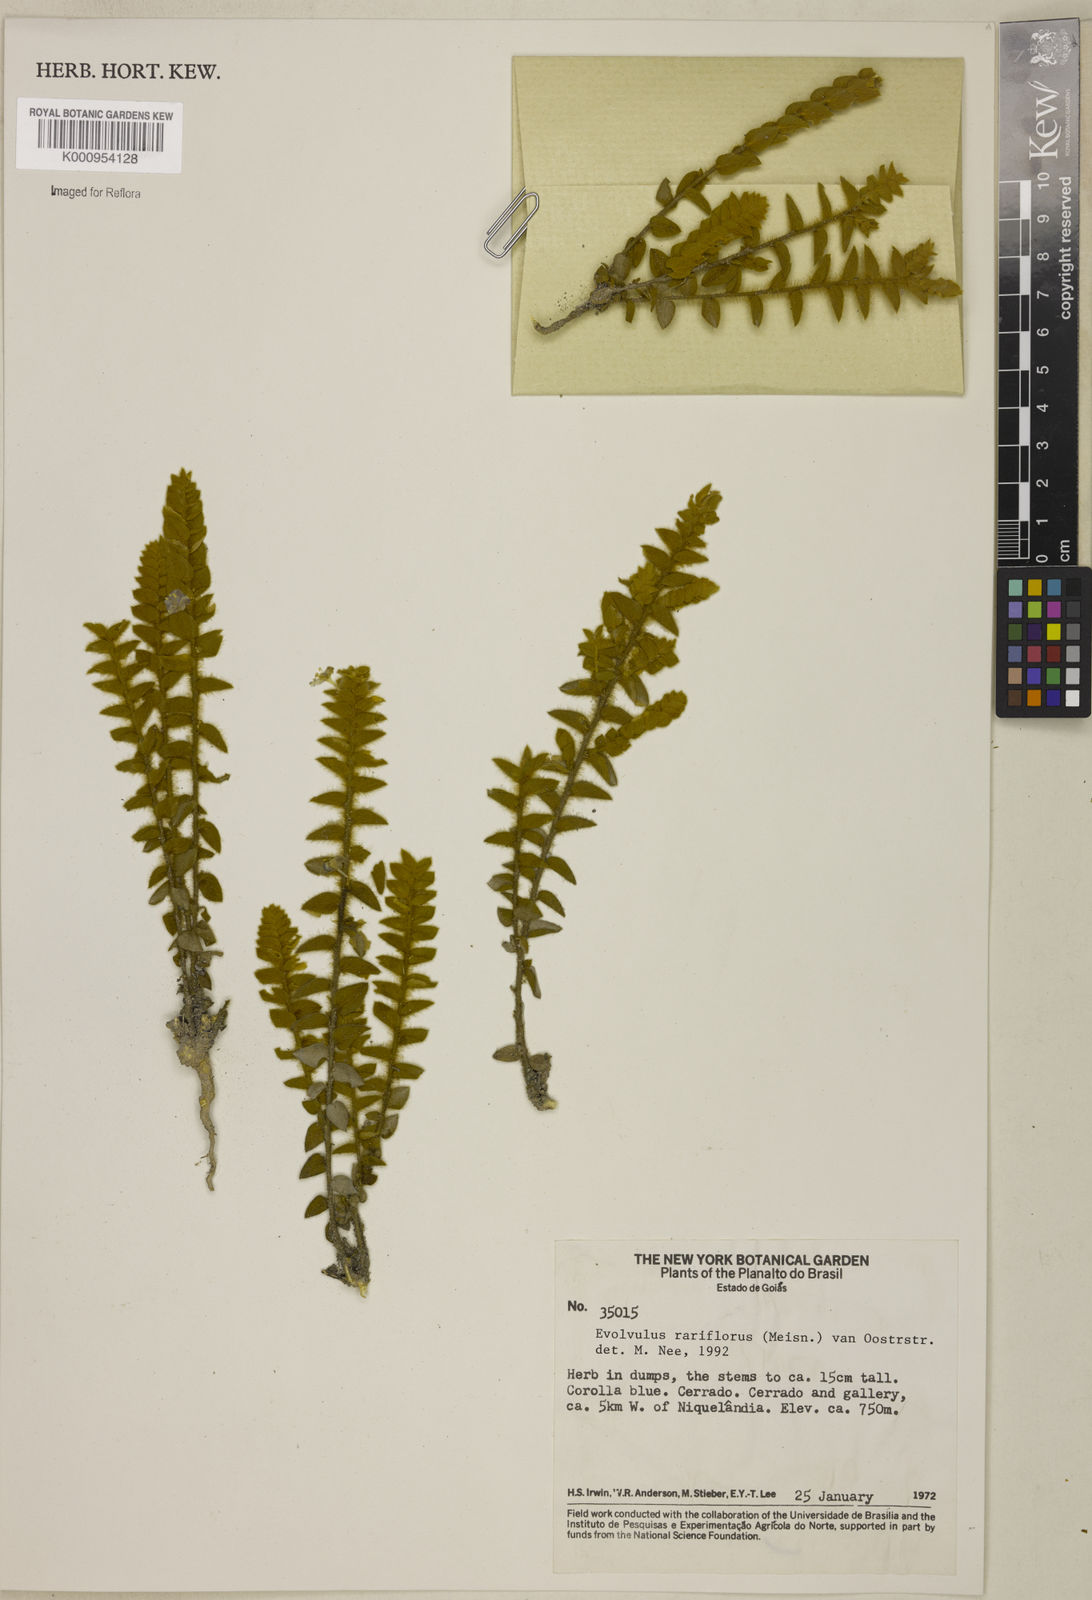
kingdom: Plantae
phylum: Tracheophyta
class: Magnoliopsida
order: Solanales
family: Convolvulaceae
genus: Evolvulus
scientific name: Evolvulus rariflorus
